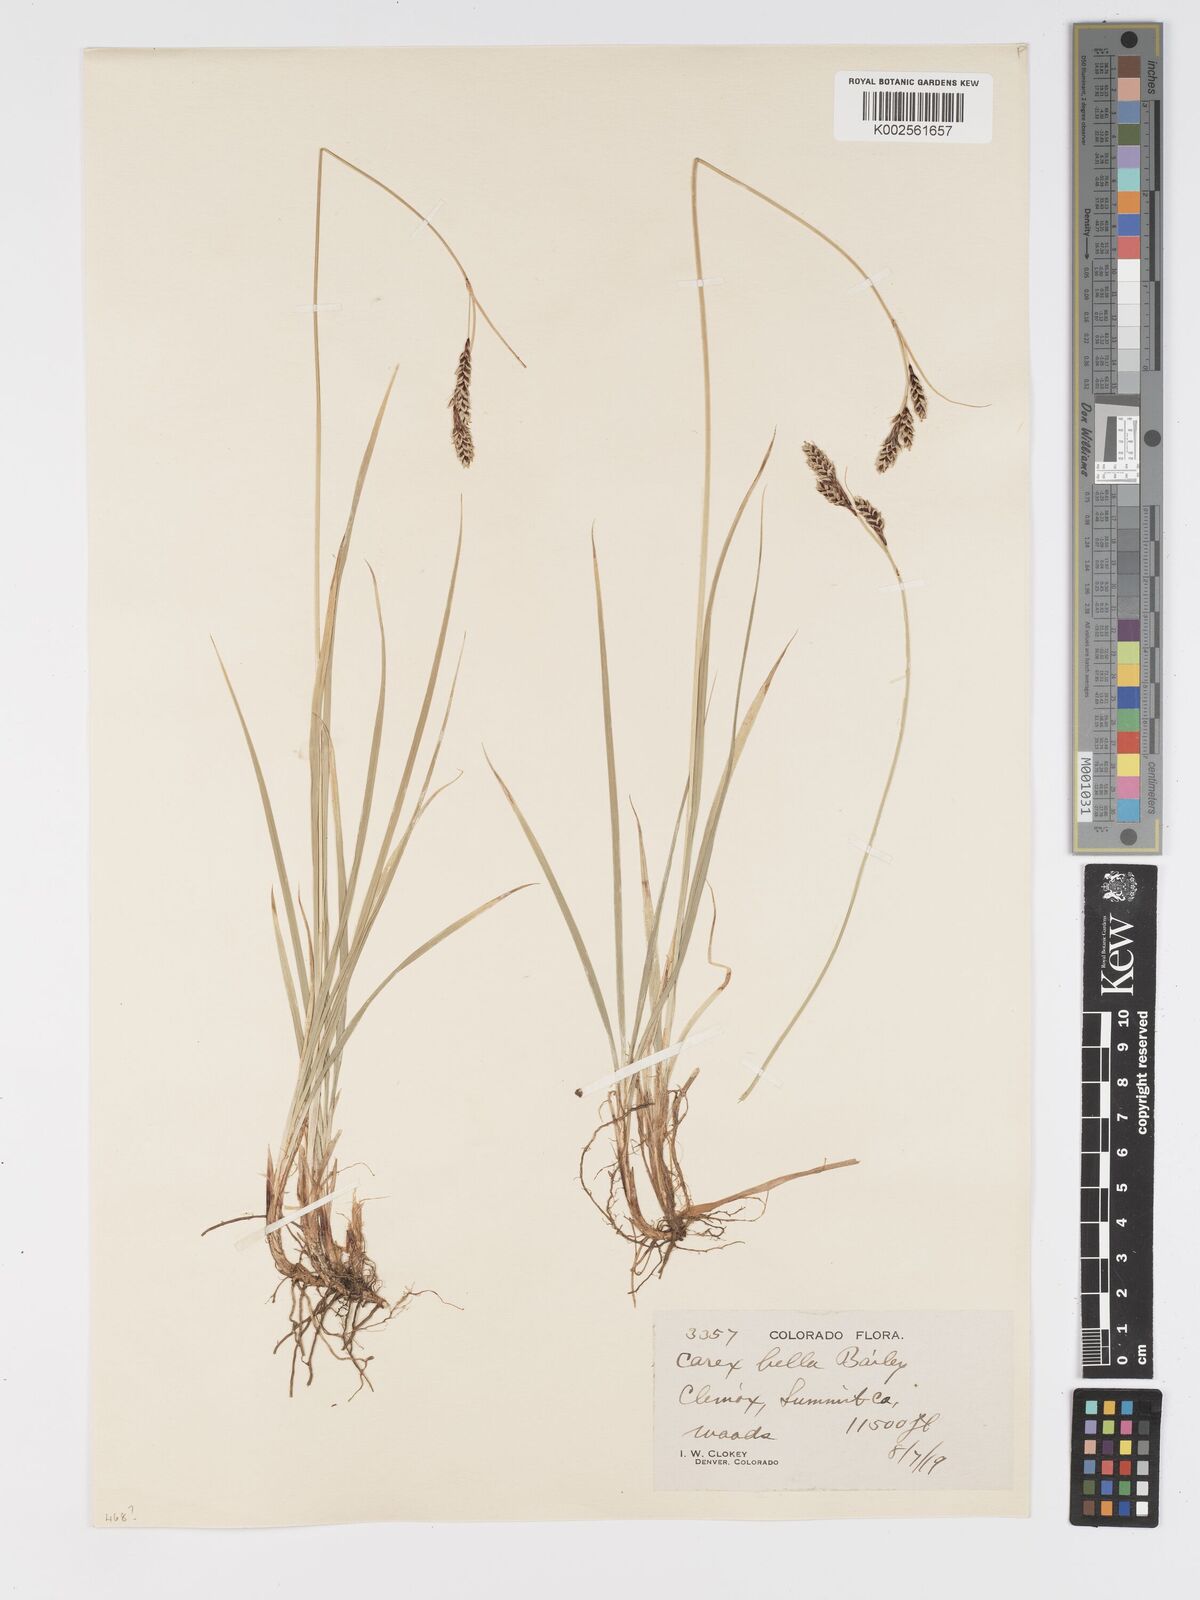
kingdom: Plantae
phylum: Tracheophyta
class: Liliopsida
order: Poales
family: Cyperaceae
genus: Carex
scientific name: Carex bella
